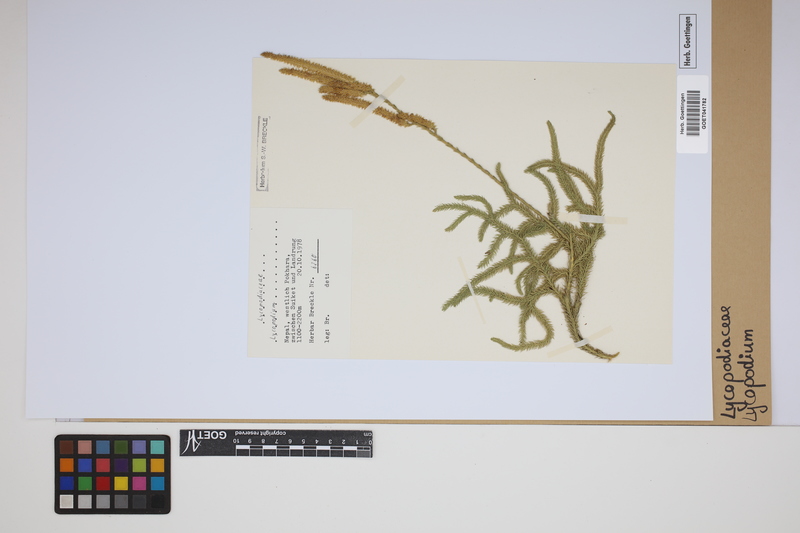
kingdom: Plantae
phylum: Tracheophyta
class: Lycopodiopsida
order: Lycopodiales
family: Lycopodiaceae
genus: Lycopodium
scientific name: Lycopodium
